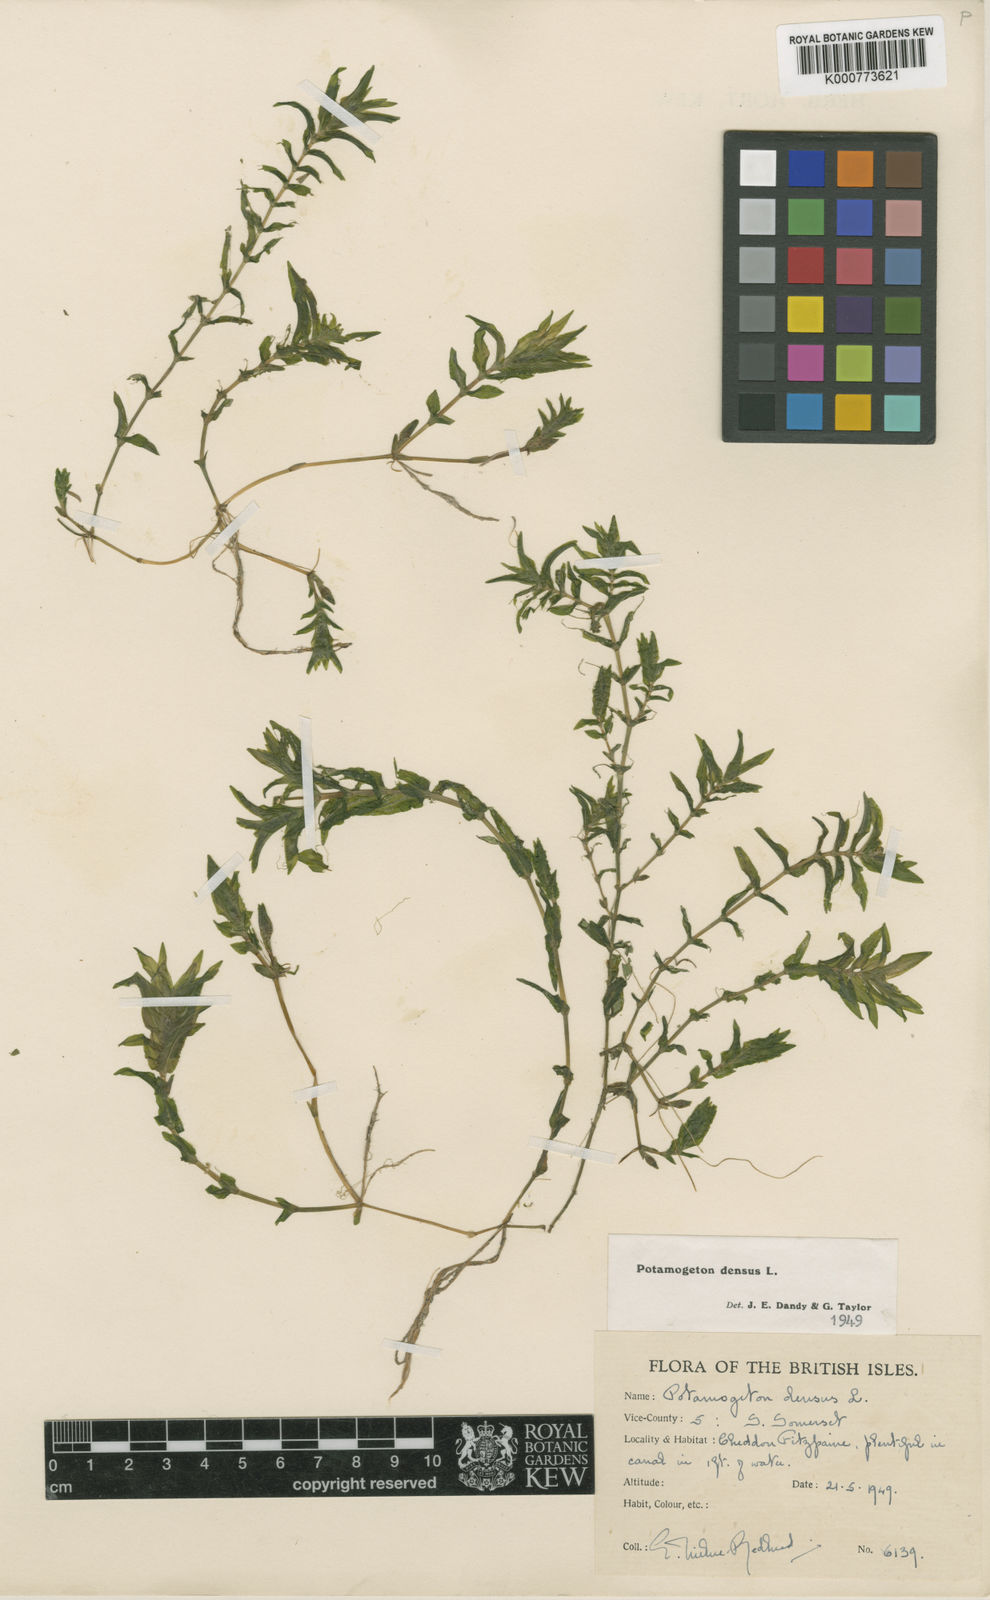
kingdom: Plantae
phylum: Tracheophyta
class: Liliopsida
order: Alismatales
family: Potamogetonaceae
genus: Groenlandia
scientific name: Groenlandia densa
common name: Opposite-leaved pondweed
